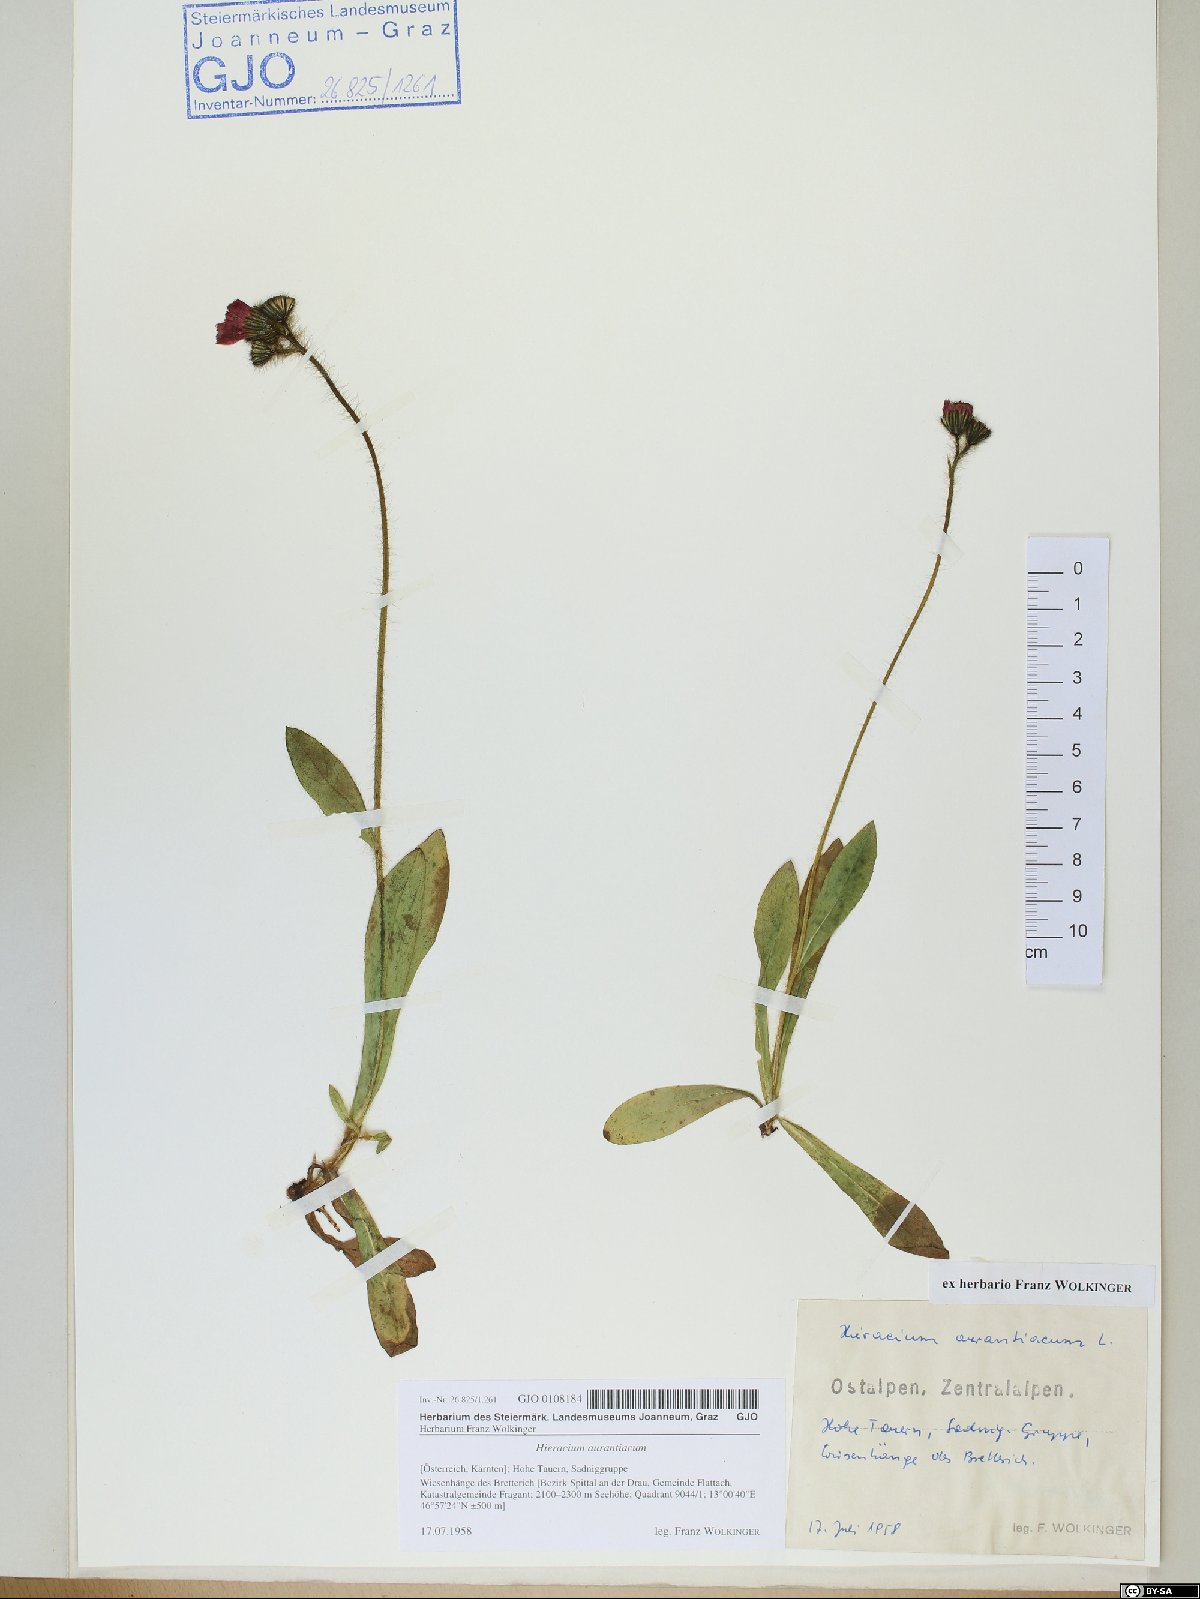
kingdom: Plantae
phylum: Tracheophyta
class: Magnoliopsida
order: Asterales
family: Asteraceae
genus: Pilosella
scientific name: Pilosella aurantiaca
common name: Fox-and-cubs
